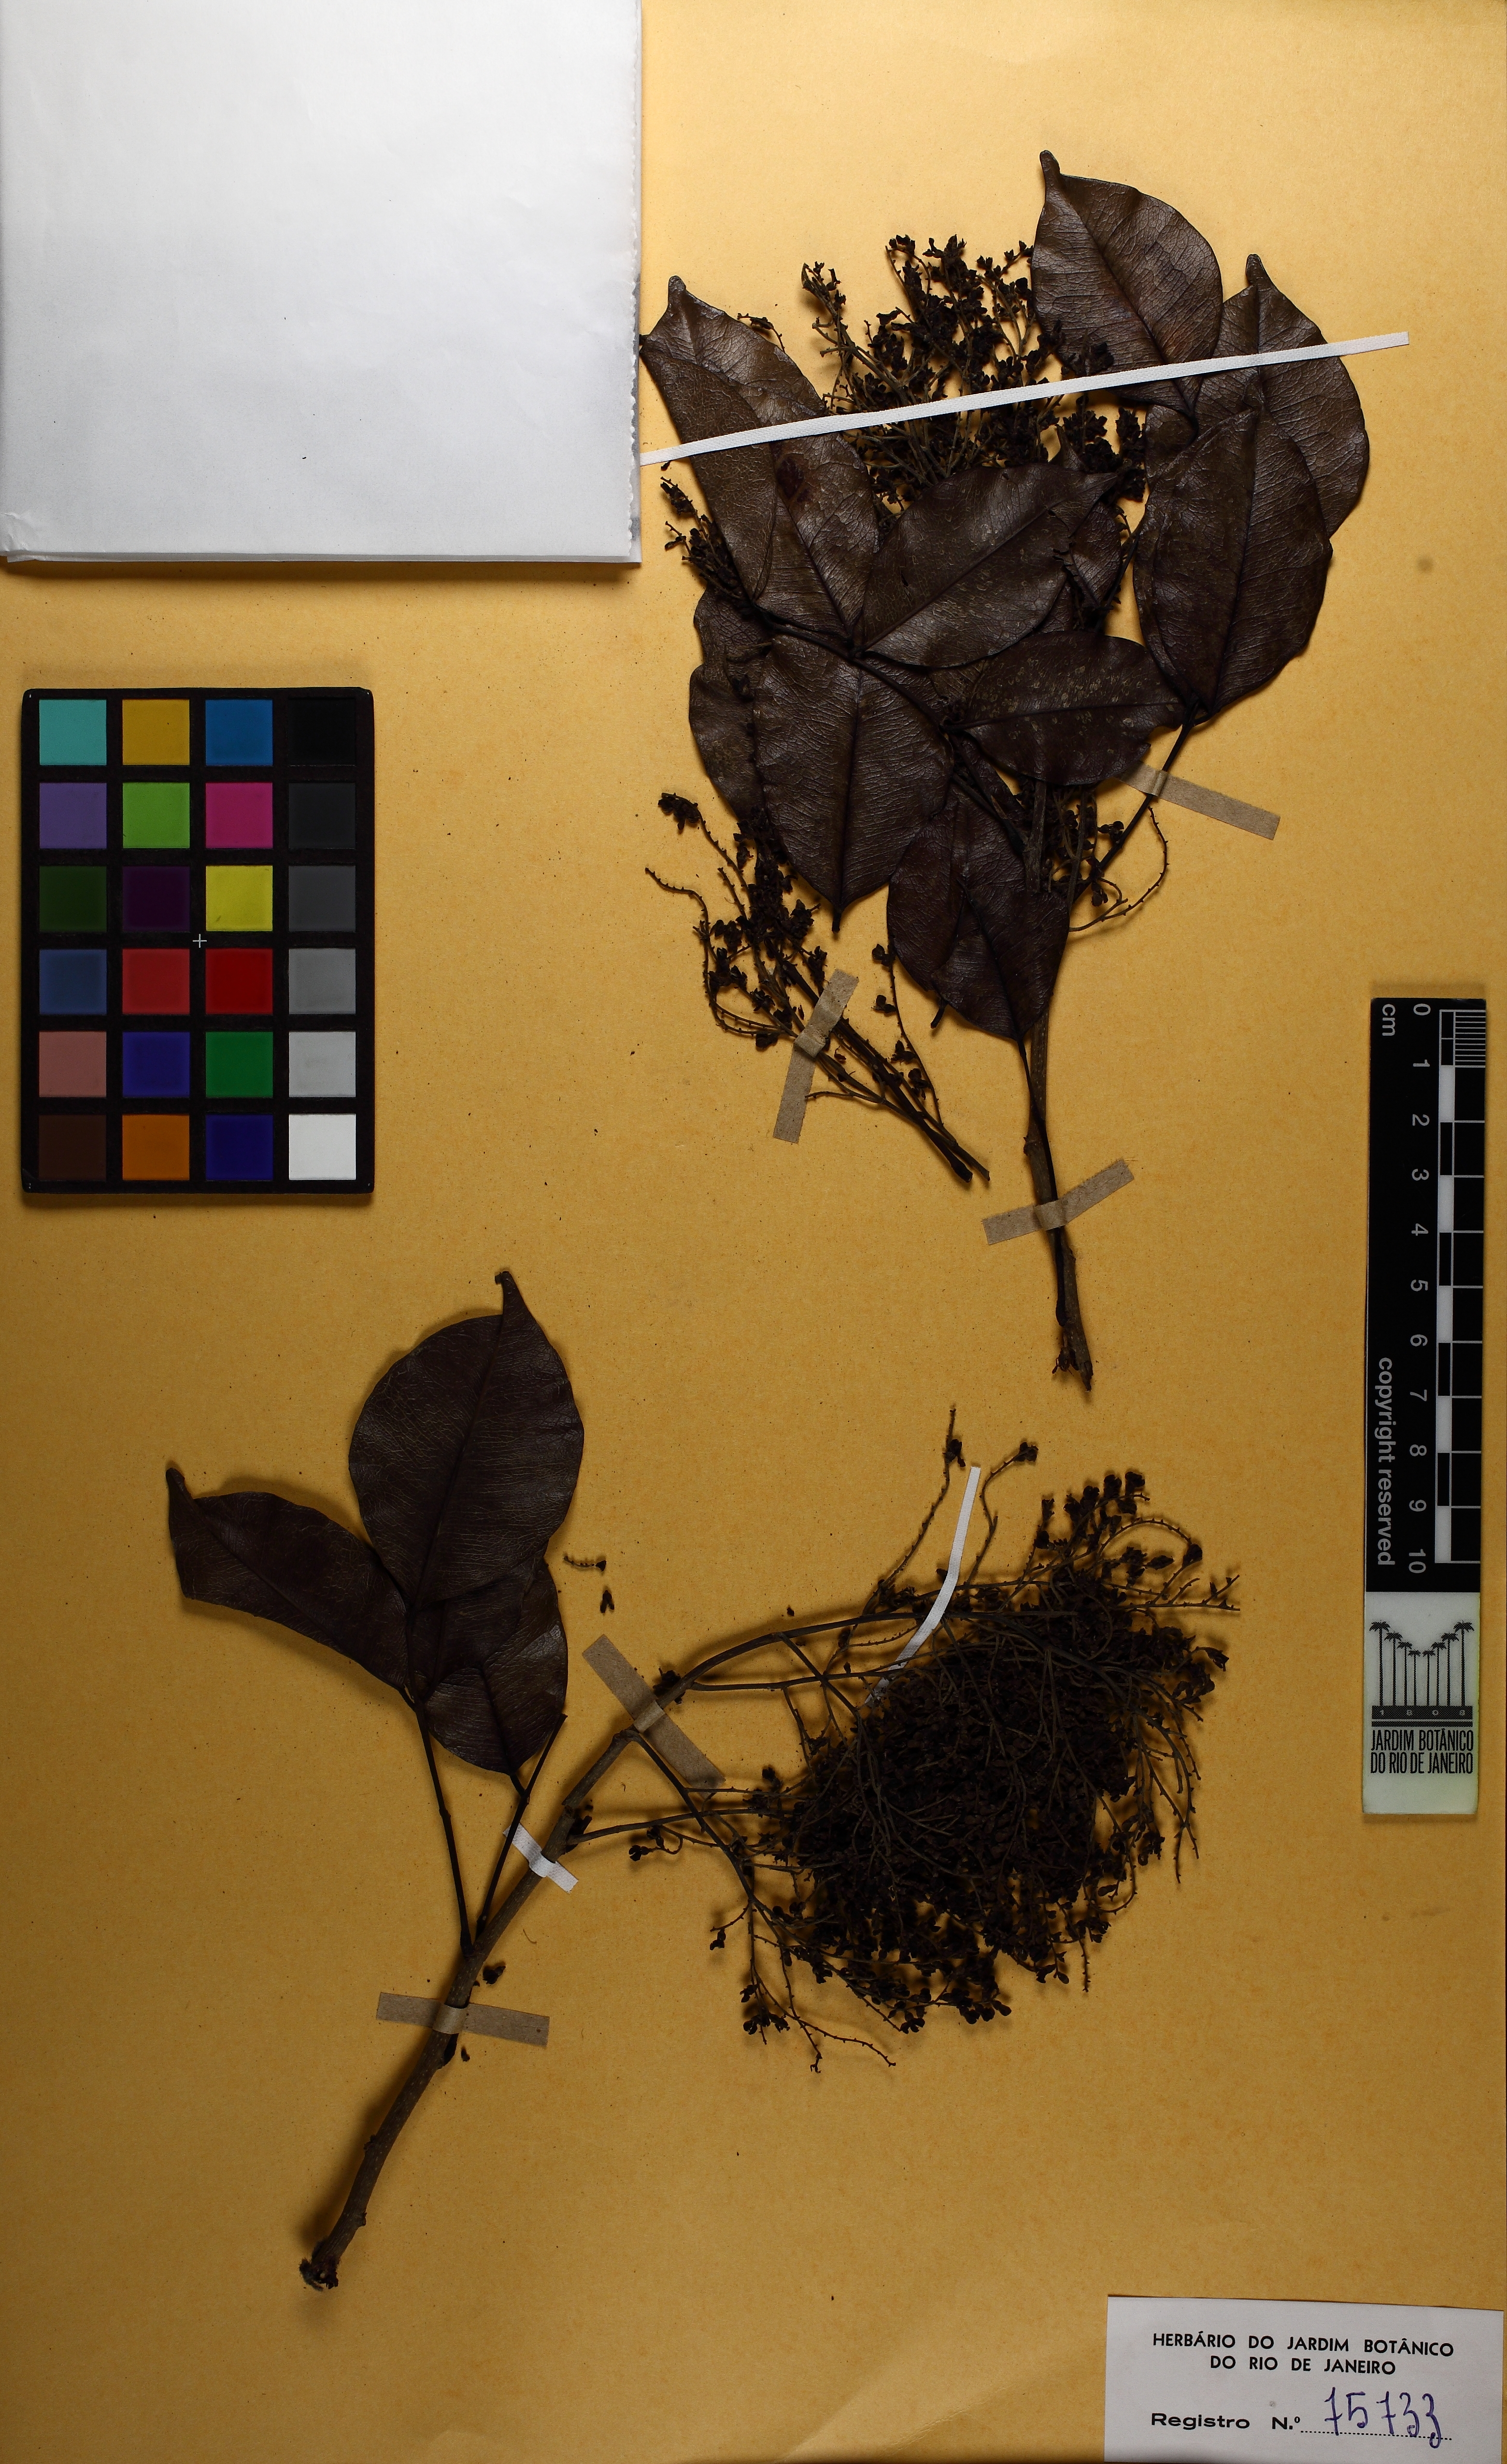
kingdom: Plantae
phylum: Tracheophyta
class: Magnoliopsida
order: Fabales
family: Fabaceae
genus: Machaerium
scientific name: Machaerium lanceolatum
